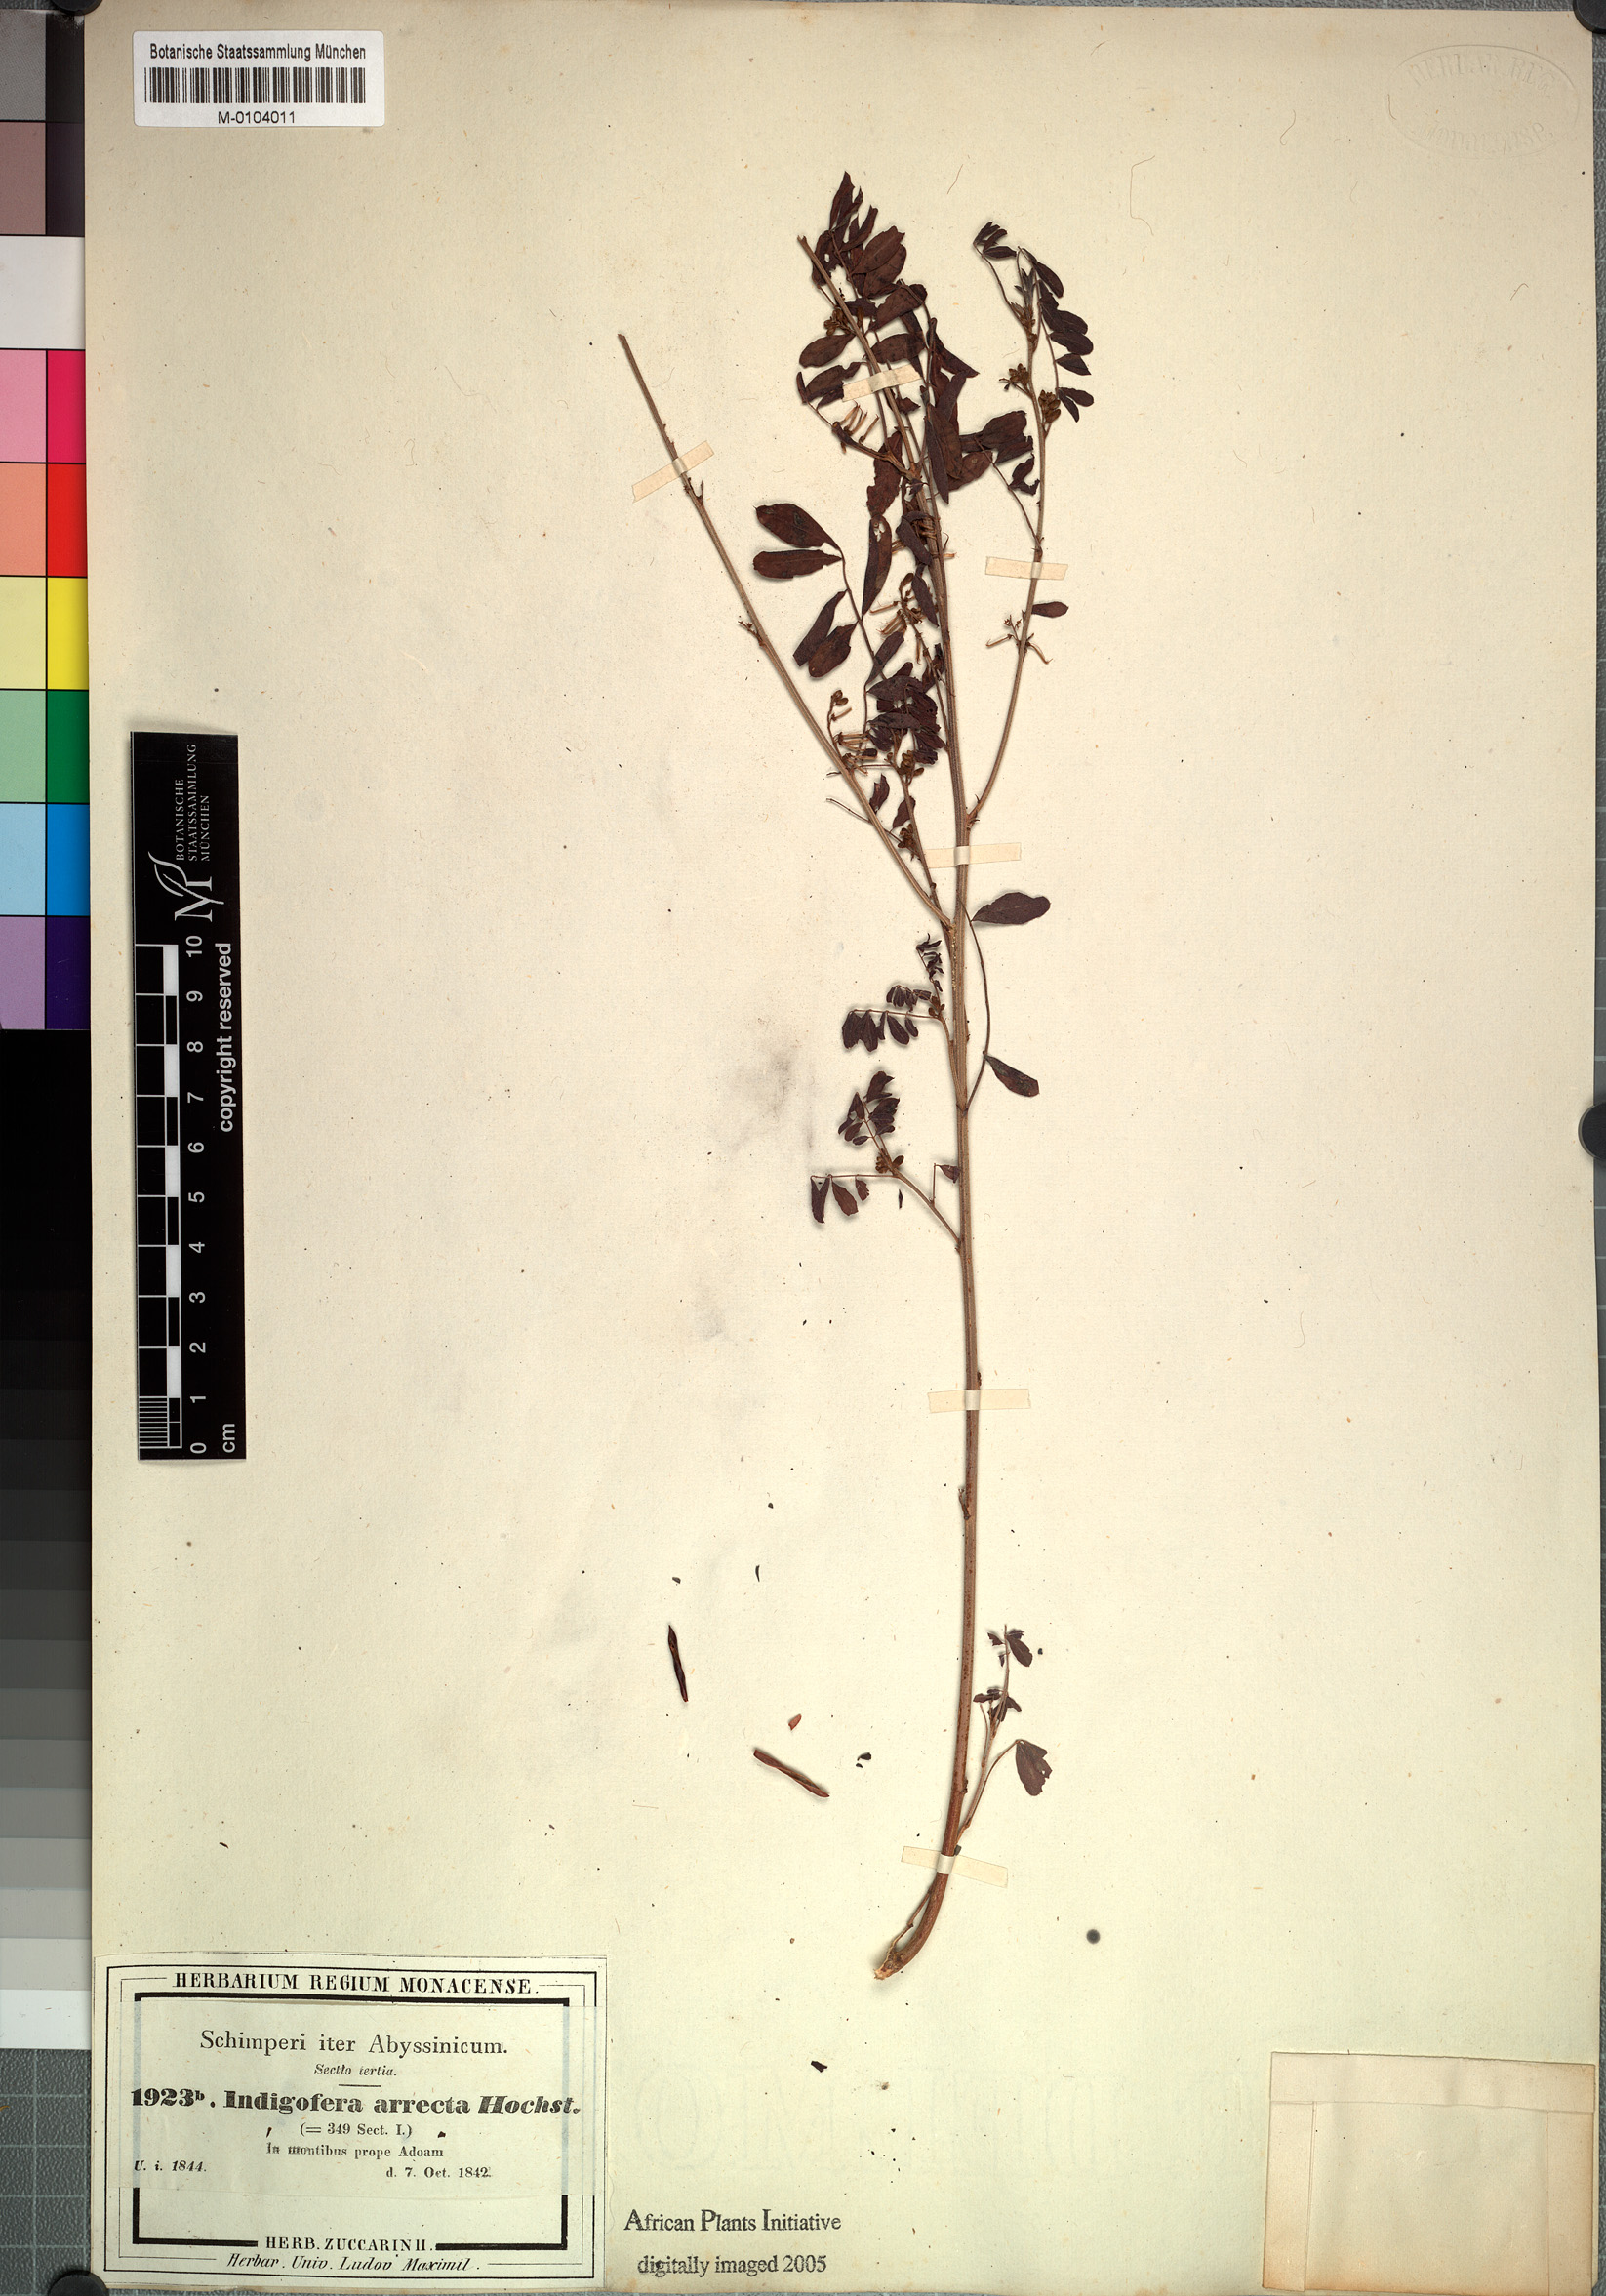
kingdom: Plantae
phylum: Tracheophyta
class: Magnoliopsida
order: Fabales
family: Fabaceae
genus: Indigofera
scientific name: Indigofera arrecta
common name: Bengal indigo
